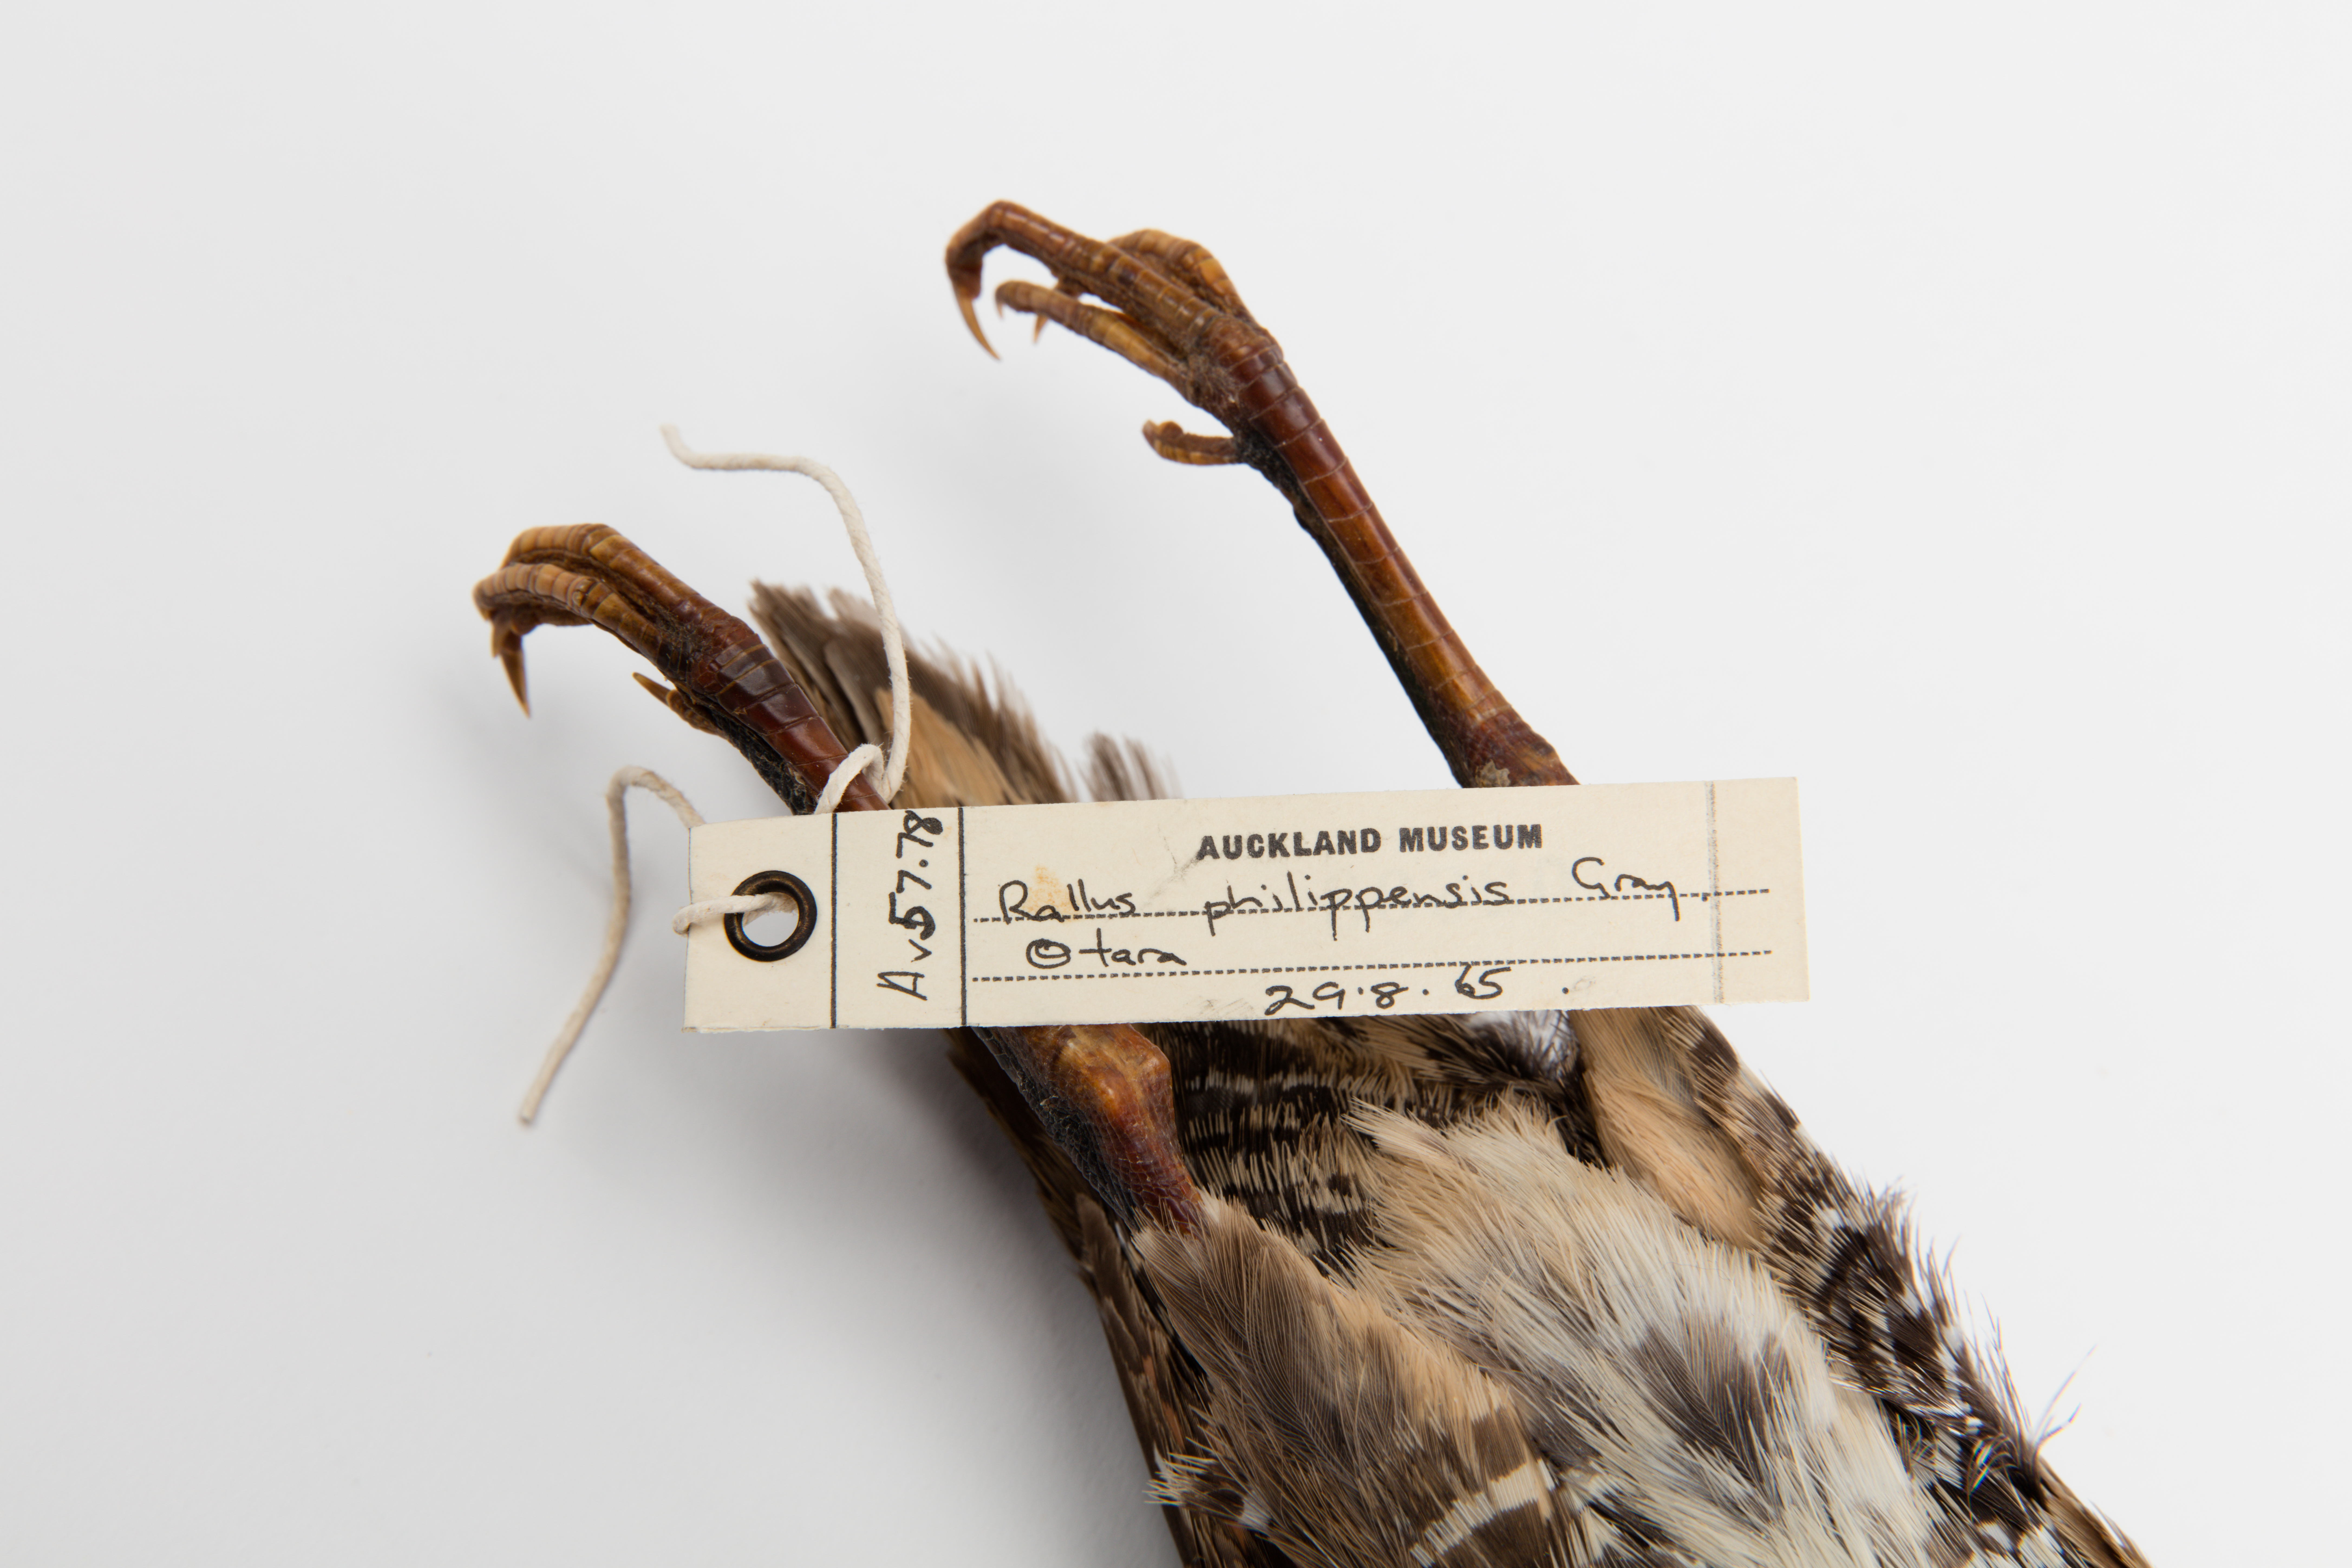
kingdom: Animalia
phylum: Chordata
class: Aves
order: Gruiformes
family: Rallidae
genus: Gallirallus
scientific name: Gallirallus philippensis
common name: Buff-banded rail
